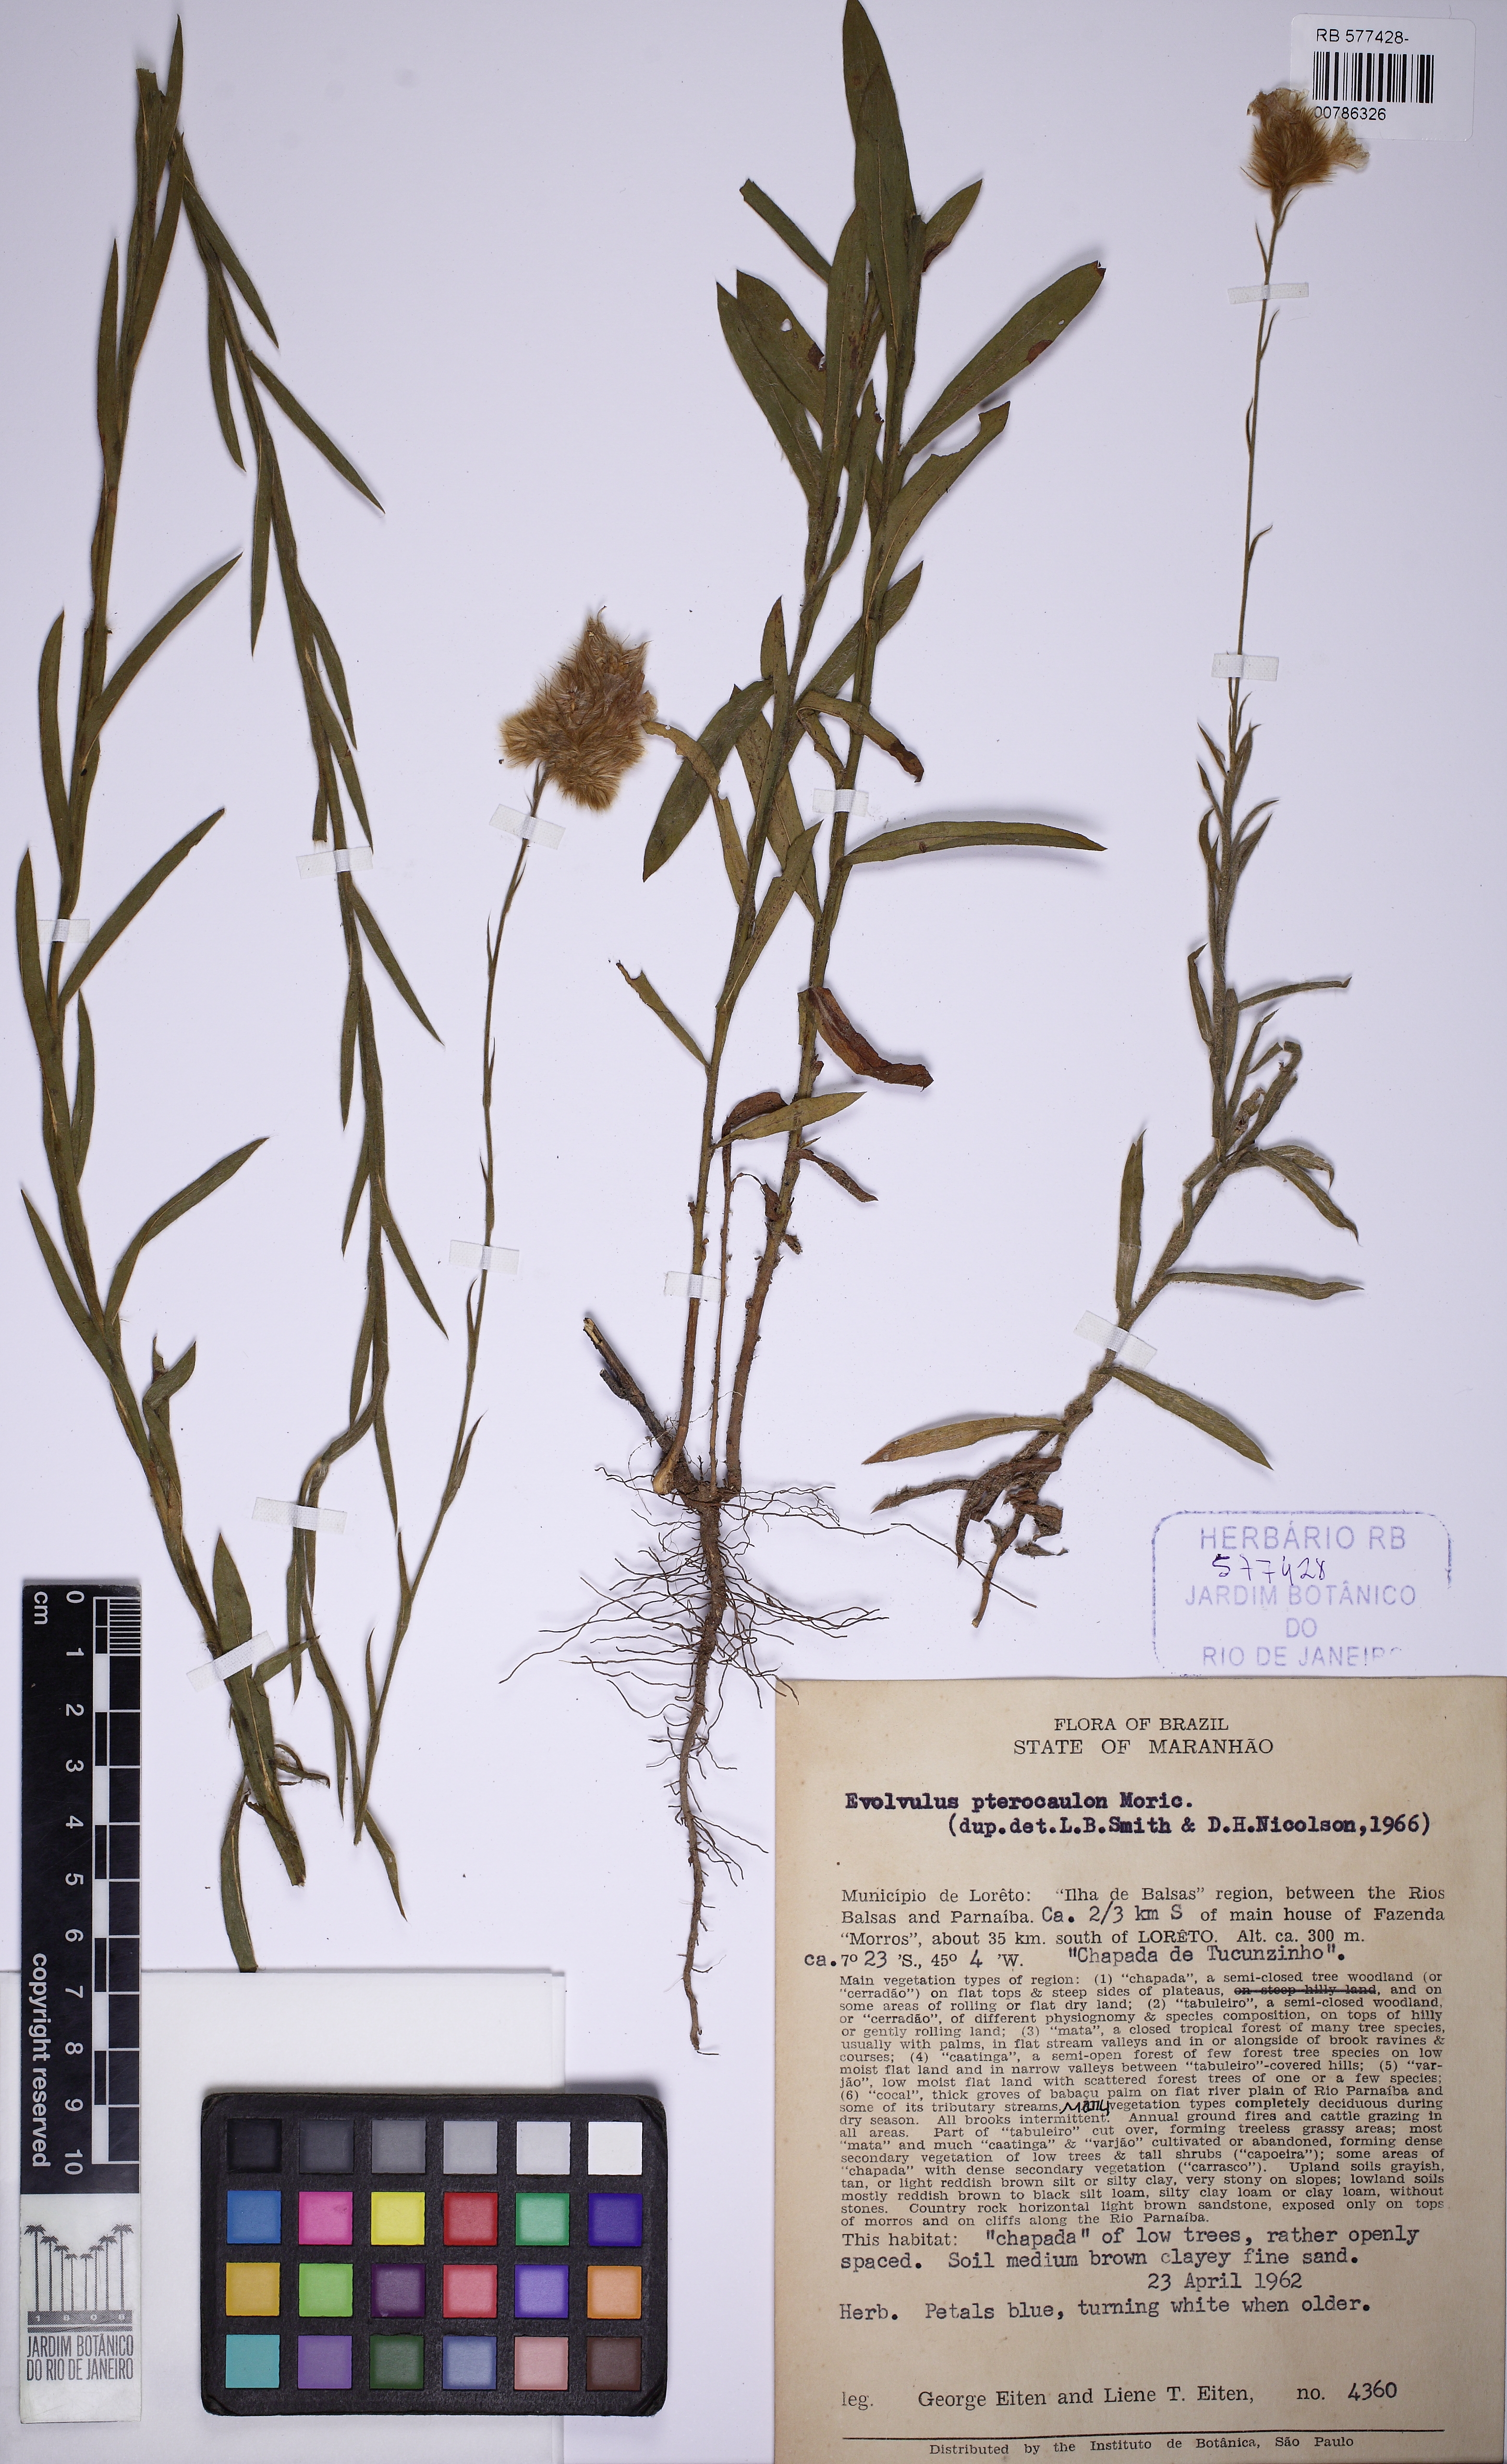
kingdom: Plantae
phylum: Tracheophyta
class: Magnoliopsida
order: Solanales
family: Convolvulaceae
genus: Evolvulus
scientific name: Evolvulus pterocaulon
